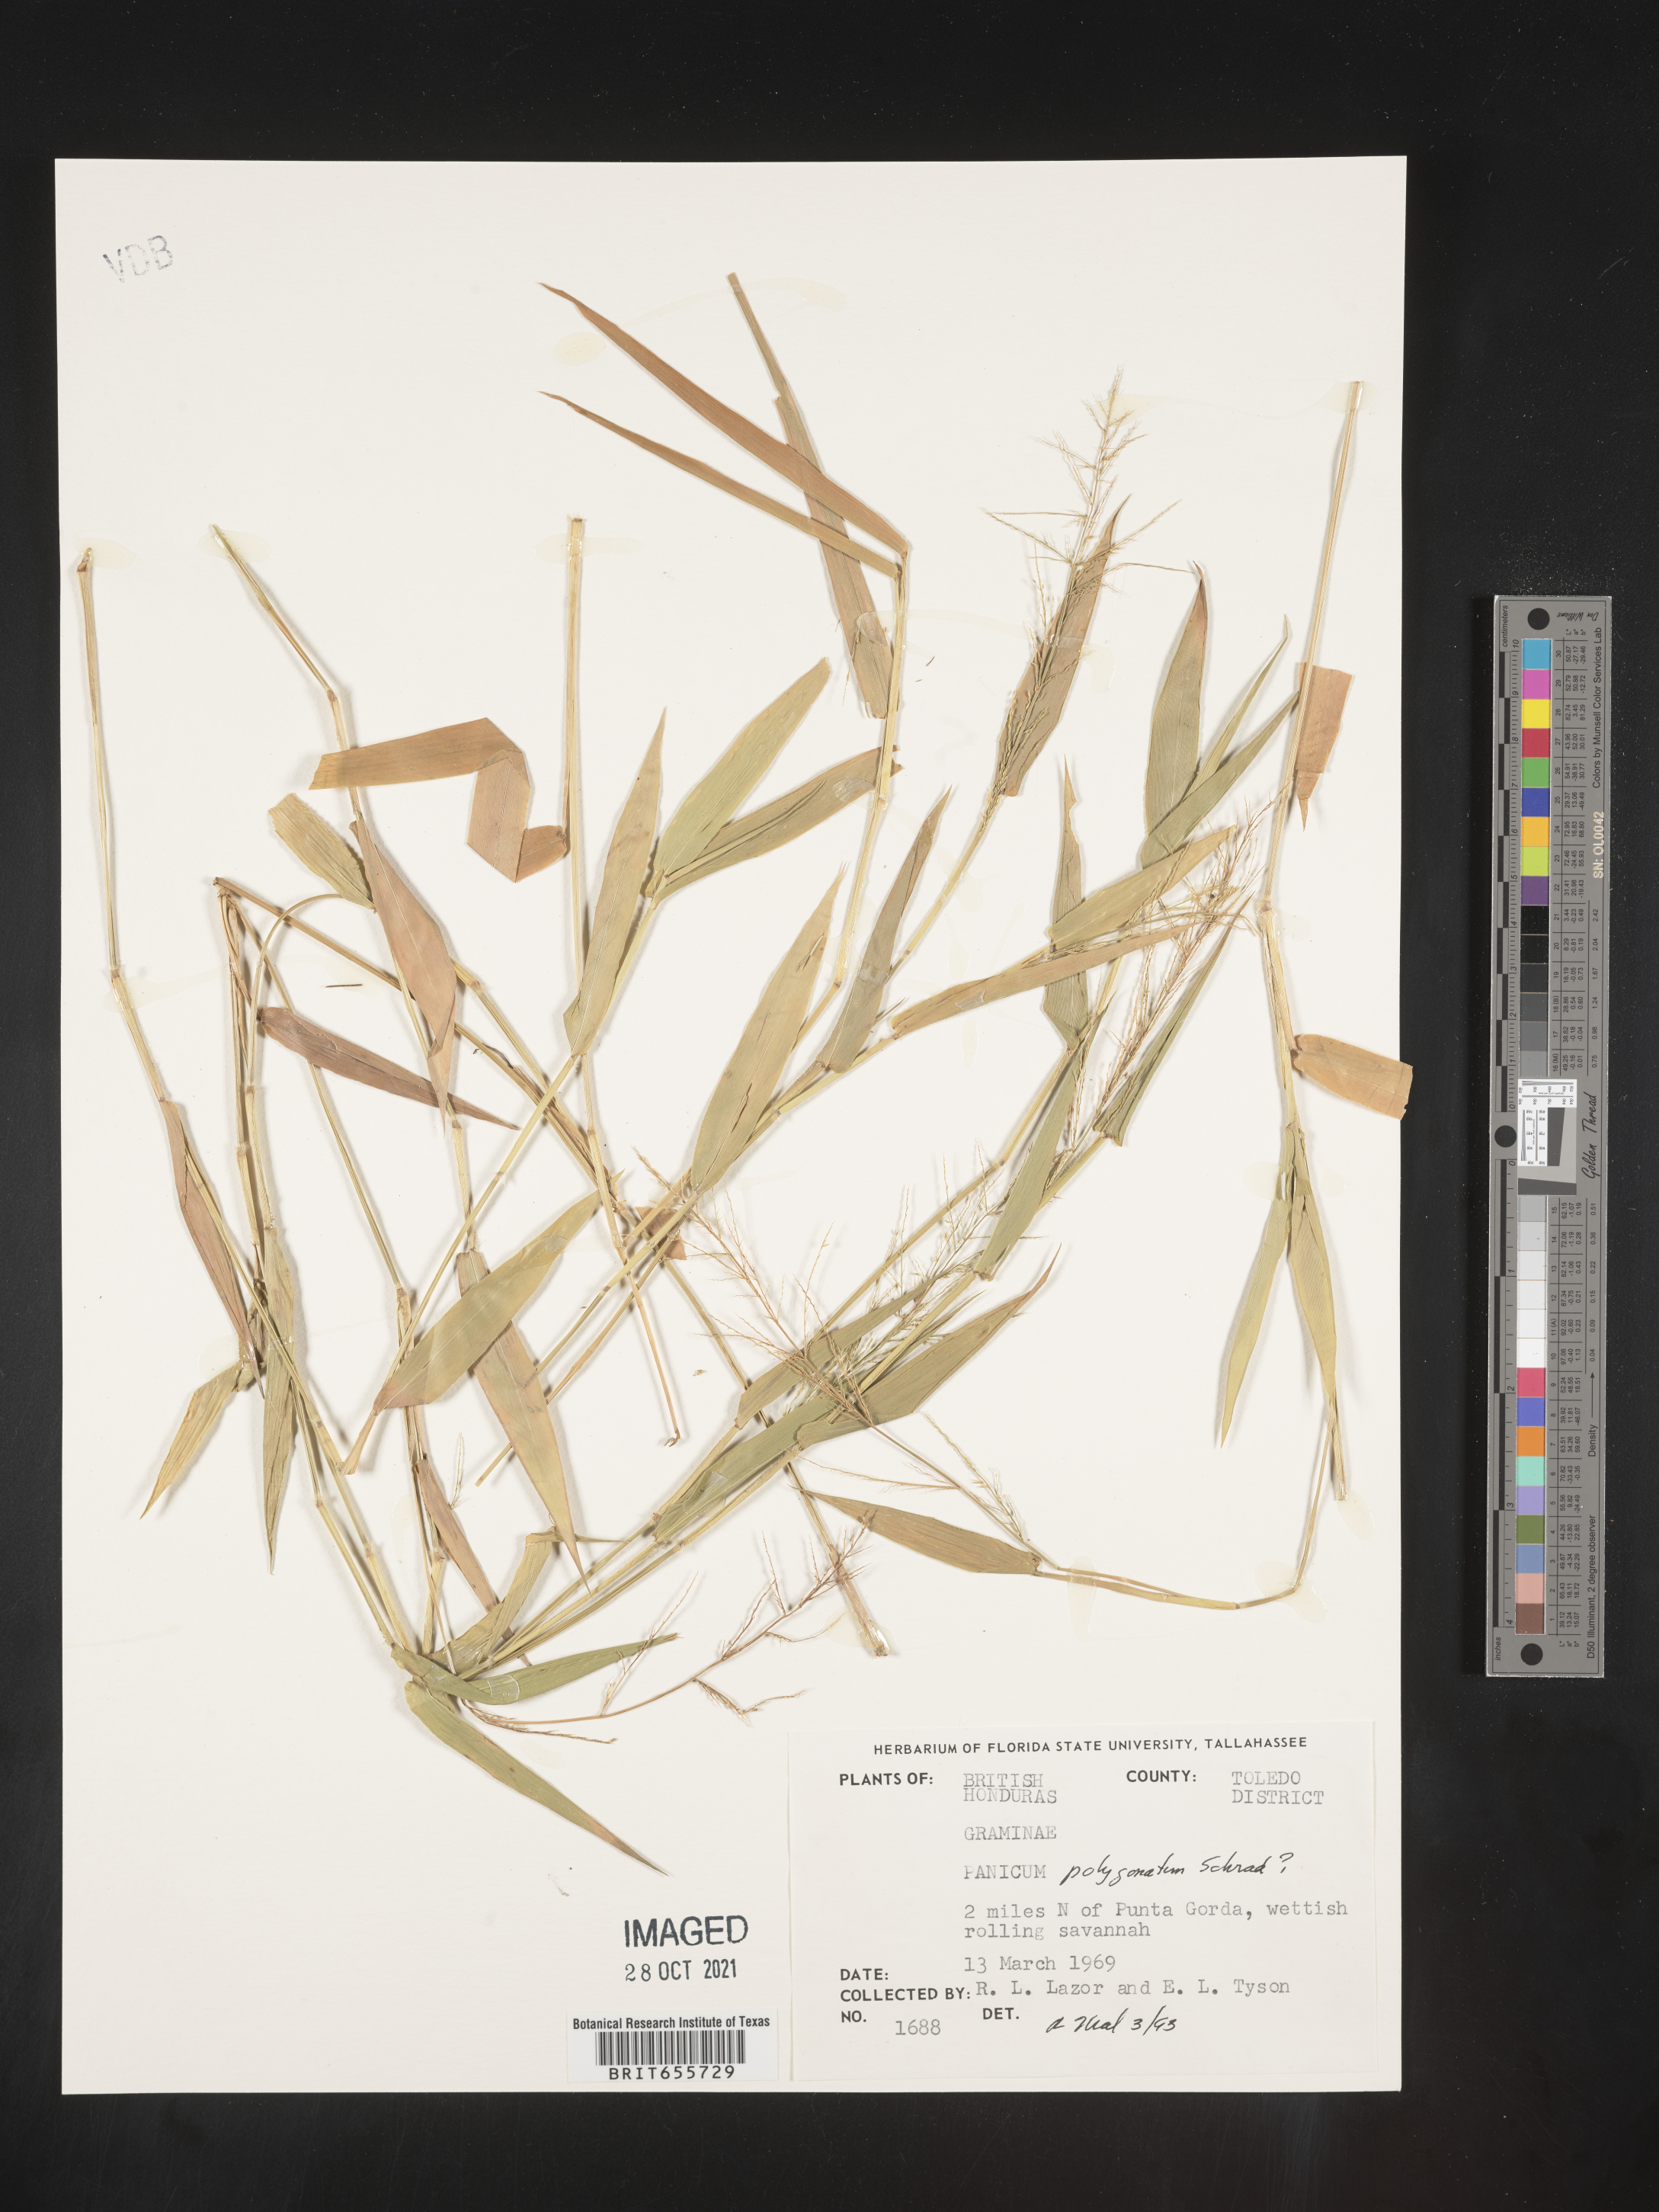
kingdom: Plantae
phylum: Tracheophyta
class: Liliopsida
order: Poales
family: Poaceae
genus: Panicum
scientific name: Panicum
